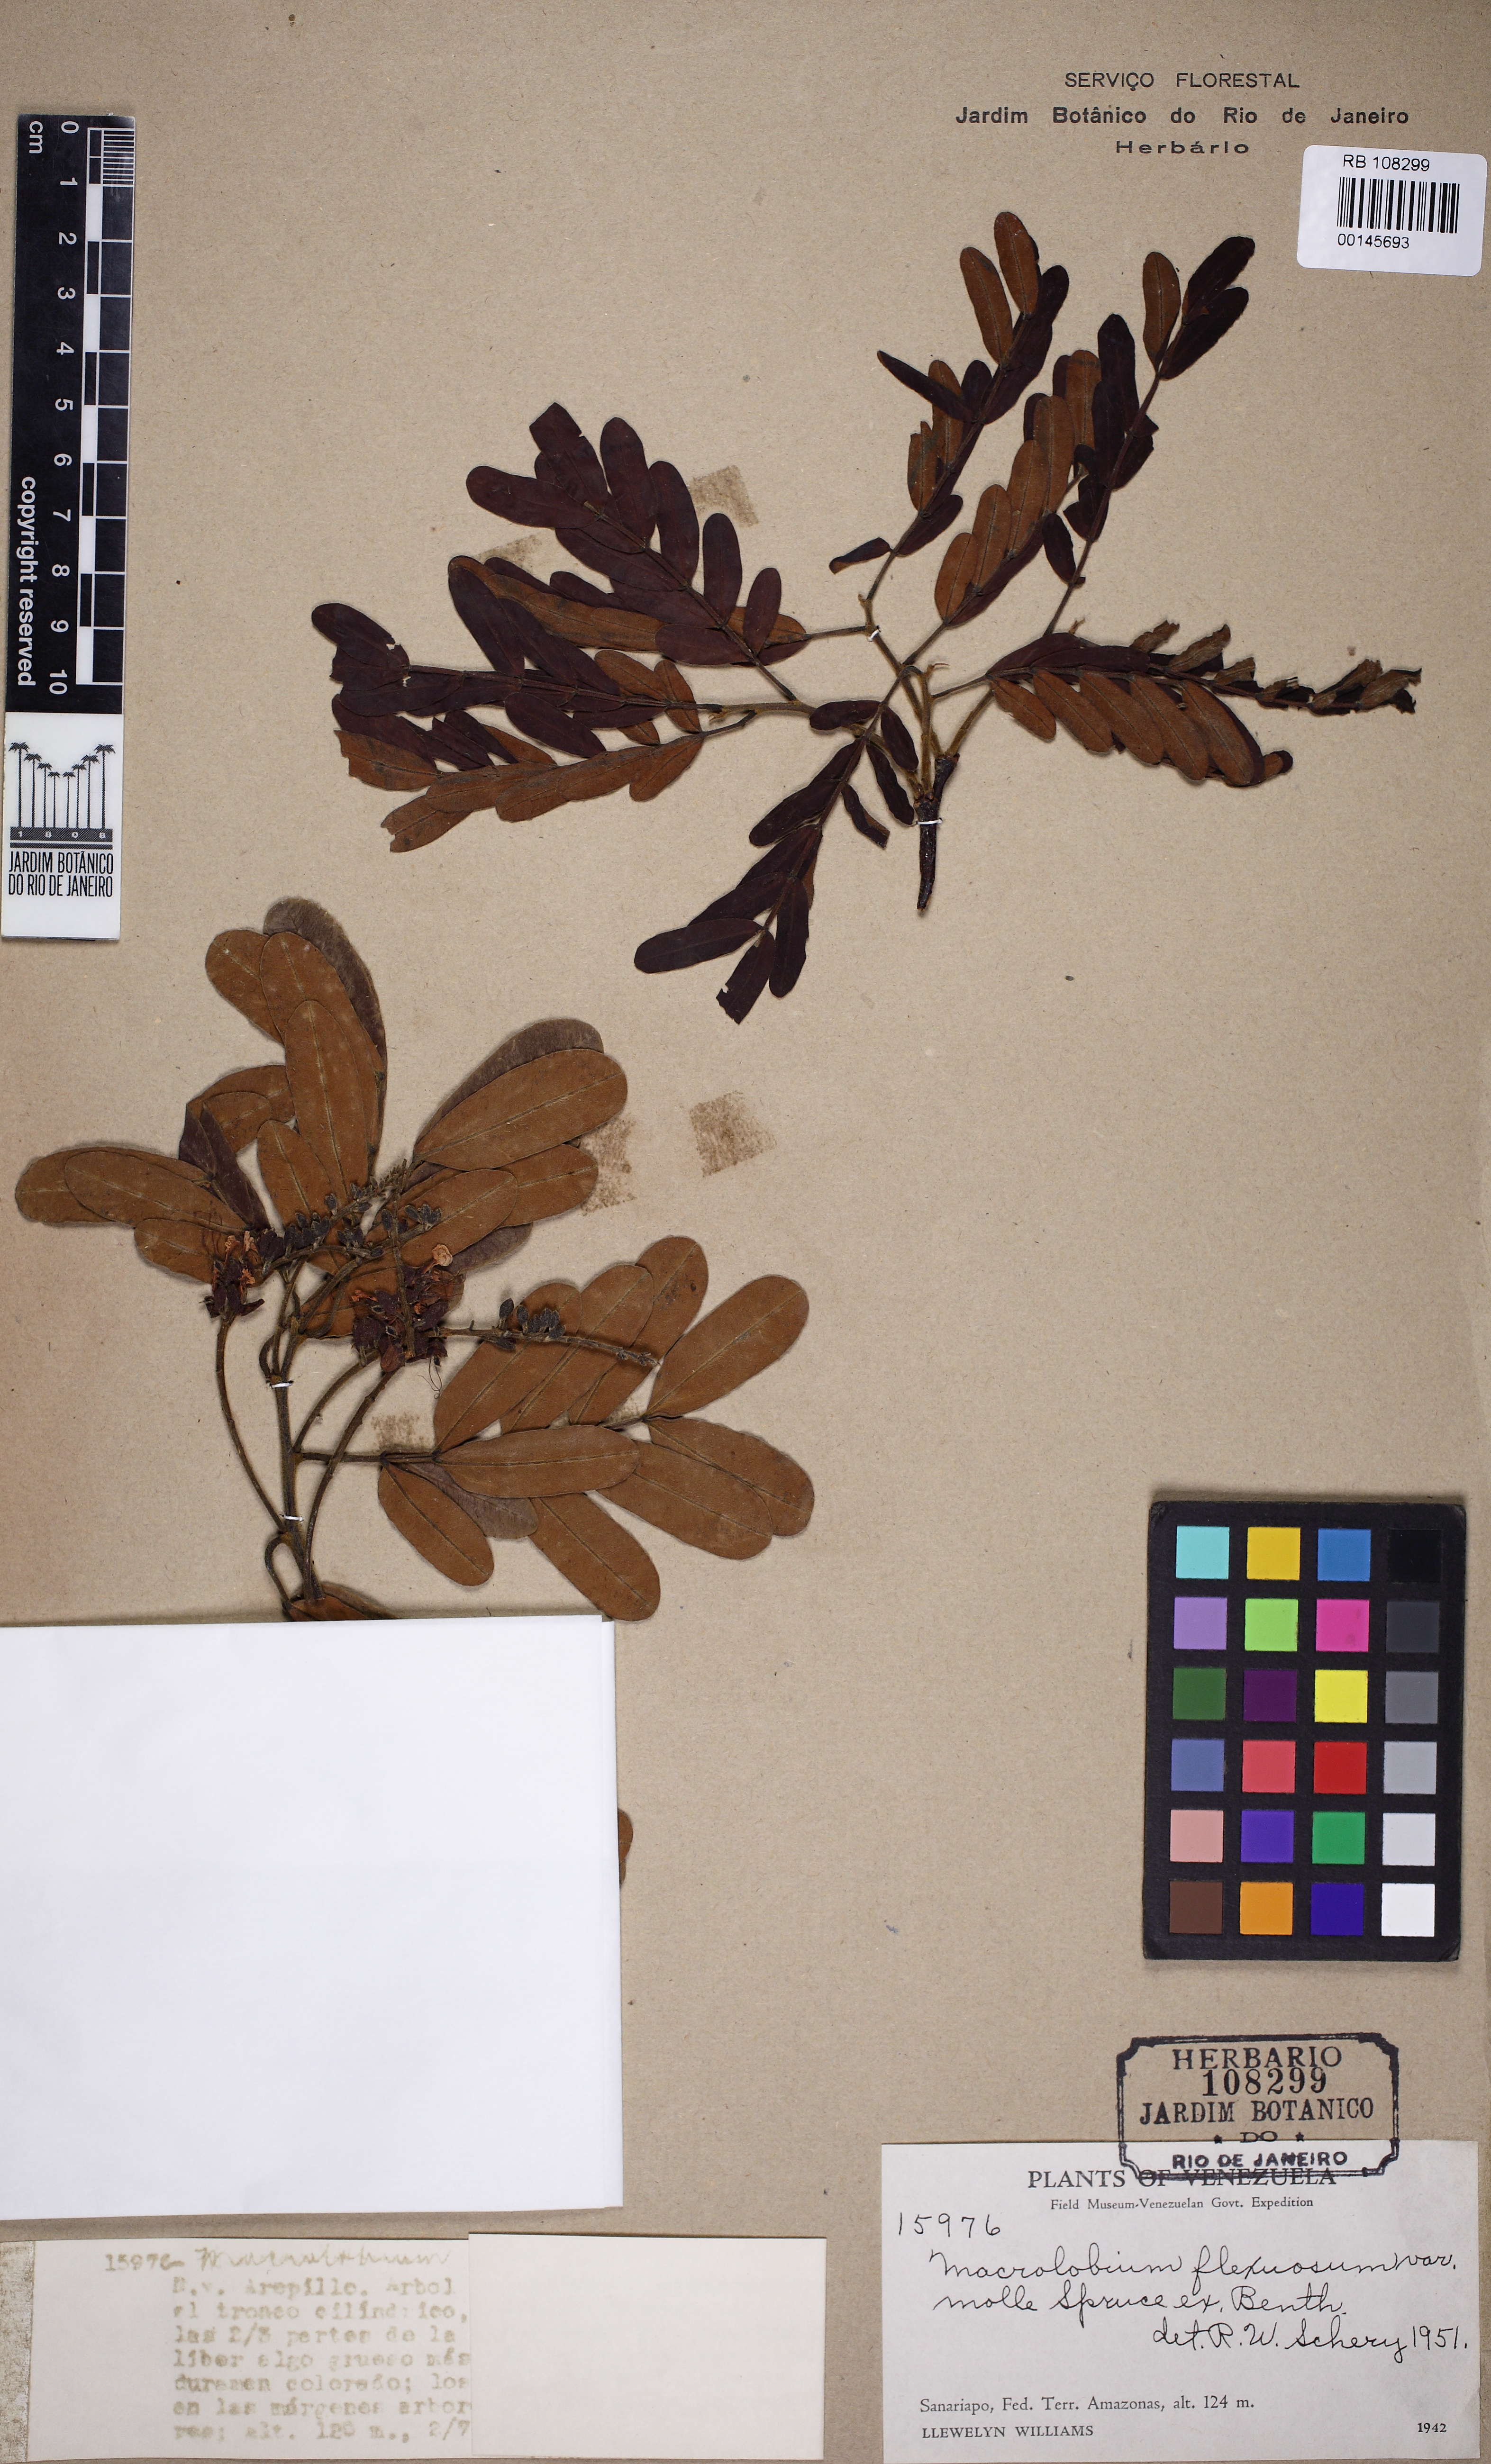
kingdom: Plantae
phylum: Tracheophyta
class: Magnoliopsida
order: Fabales
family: Fabaceae
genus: Macrolobium
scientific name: Macrolobium flexuosum
